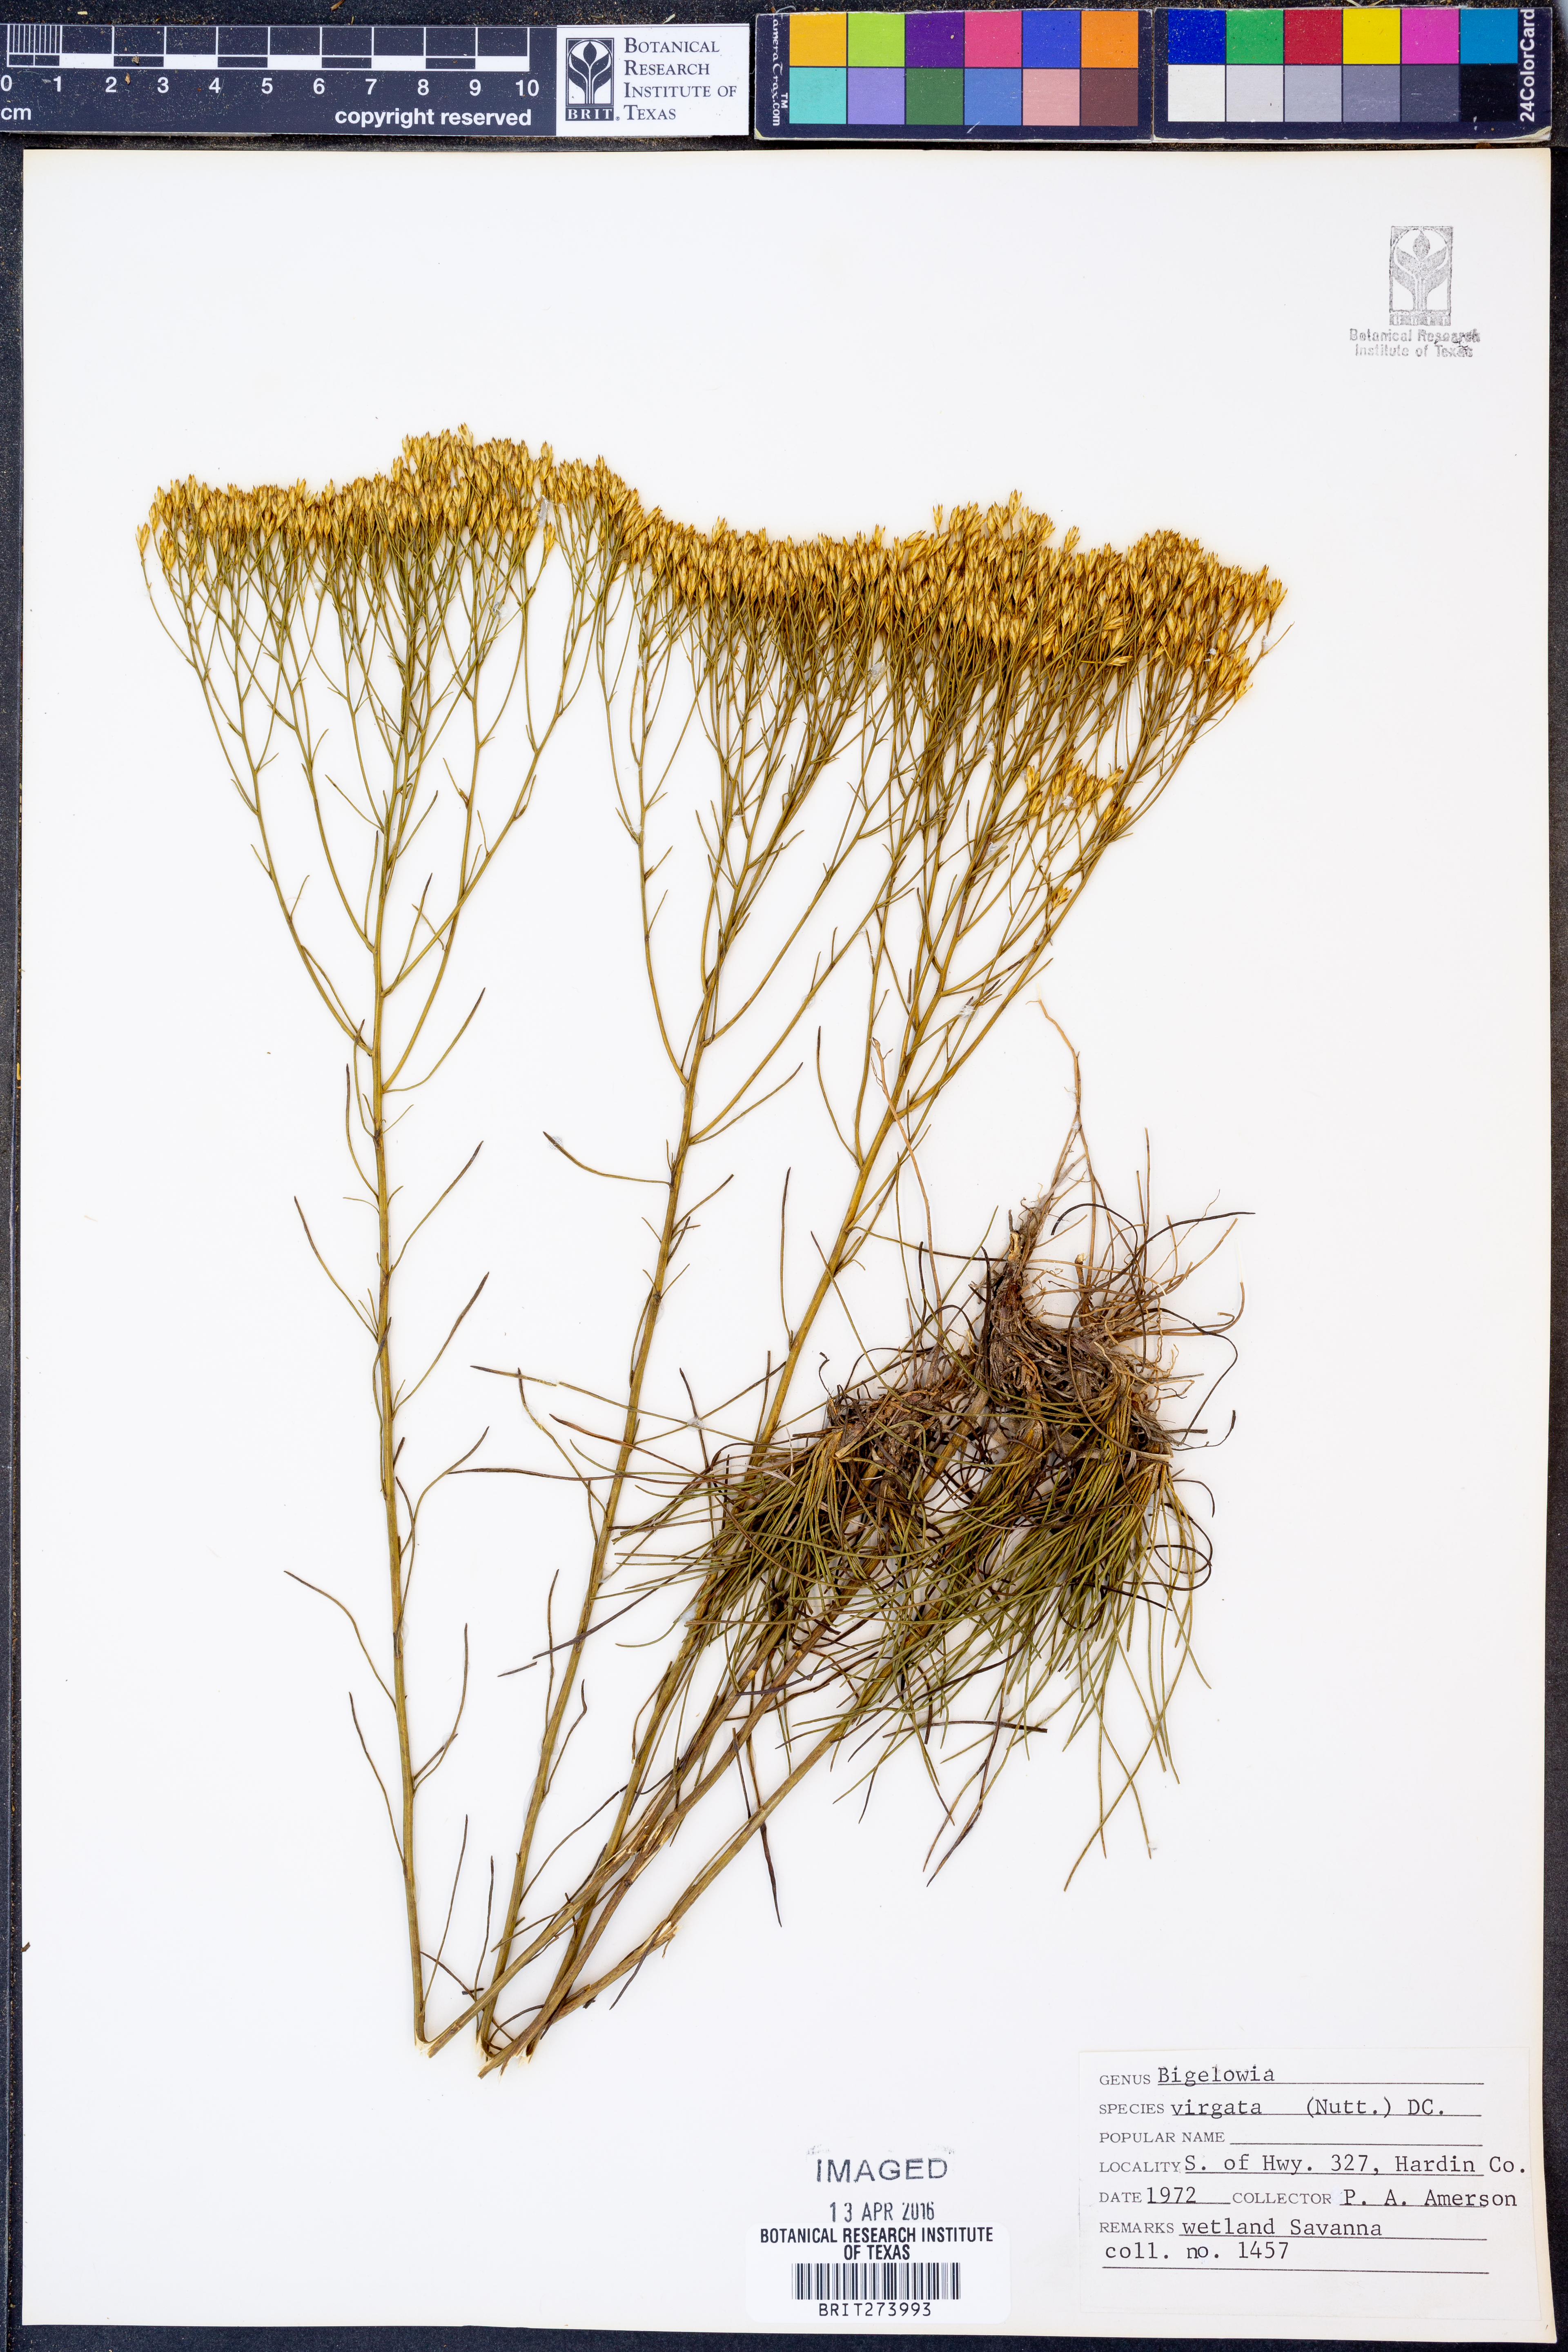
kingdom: Plantae
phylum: Tracheophyta
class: Magnoliopsida
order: Asterales
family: Asteraceae
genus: Bigelowia
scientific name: Bigelowia nudata
